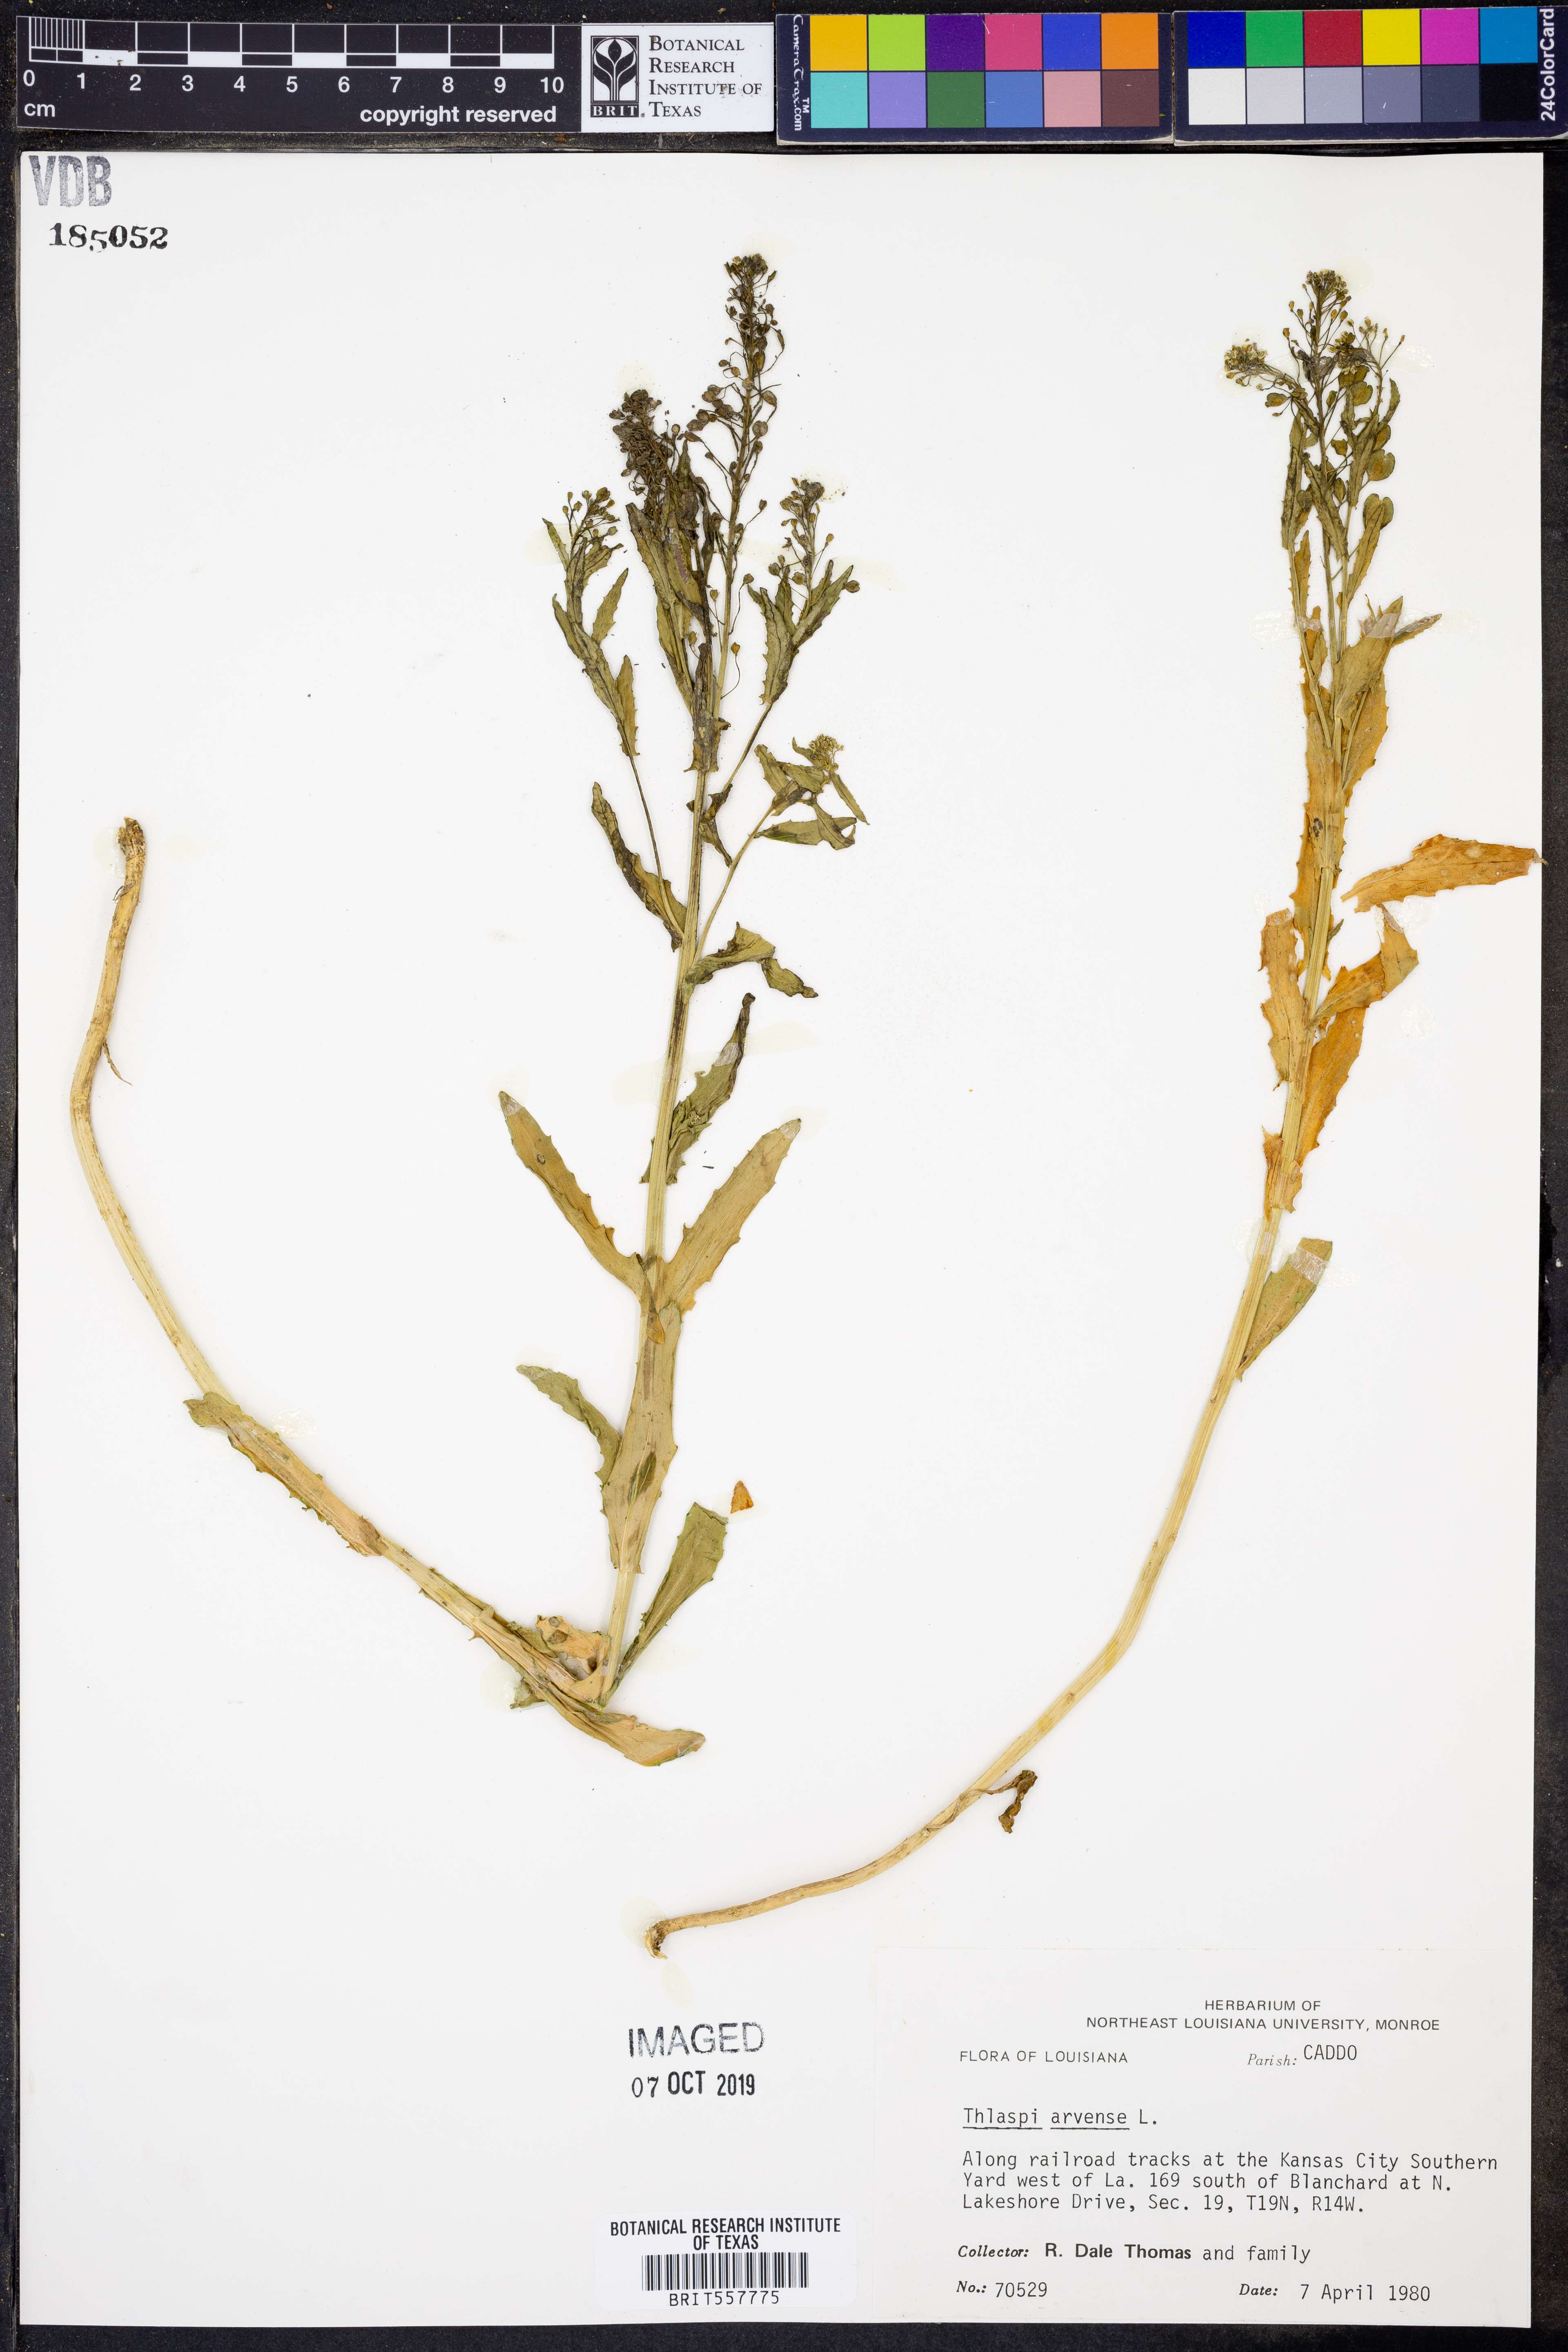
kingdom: Plantae
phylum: Tracheophyta
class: Magnoliopsida
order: Brassicales
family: Brassicaceae
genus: Thlaspi
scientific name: Thlaspi arvense
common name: Field pennycress
